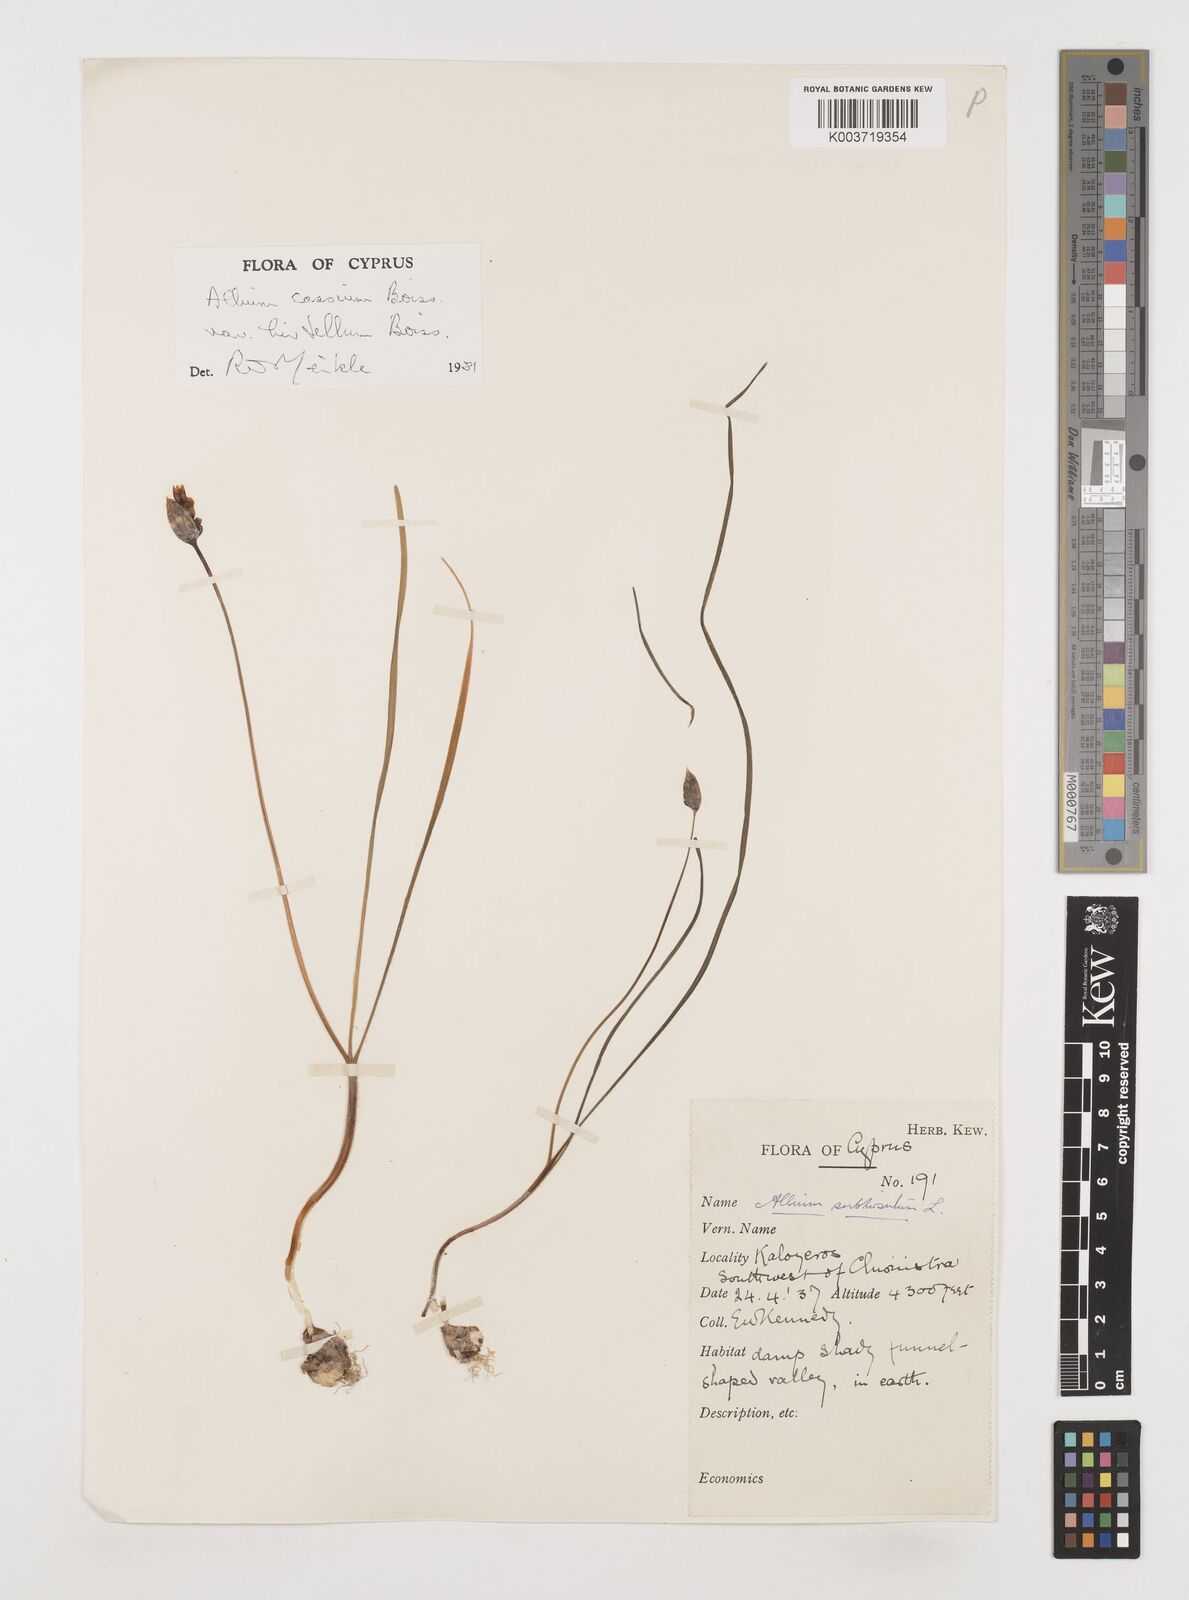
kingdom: Plantae
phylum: Tracheophyta
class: Liliopsida
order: Asparagales
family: Amaryllidaceae
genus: Allium
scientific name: Allium cassium
